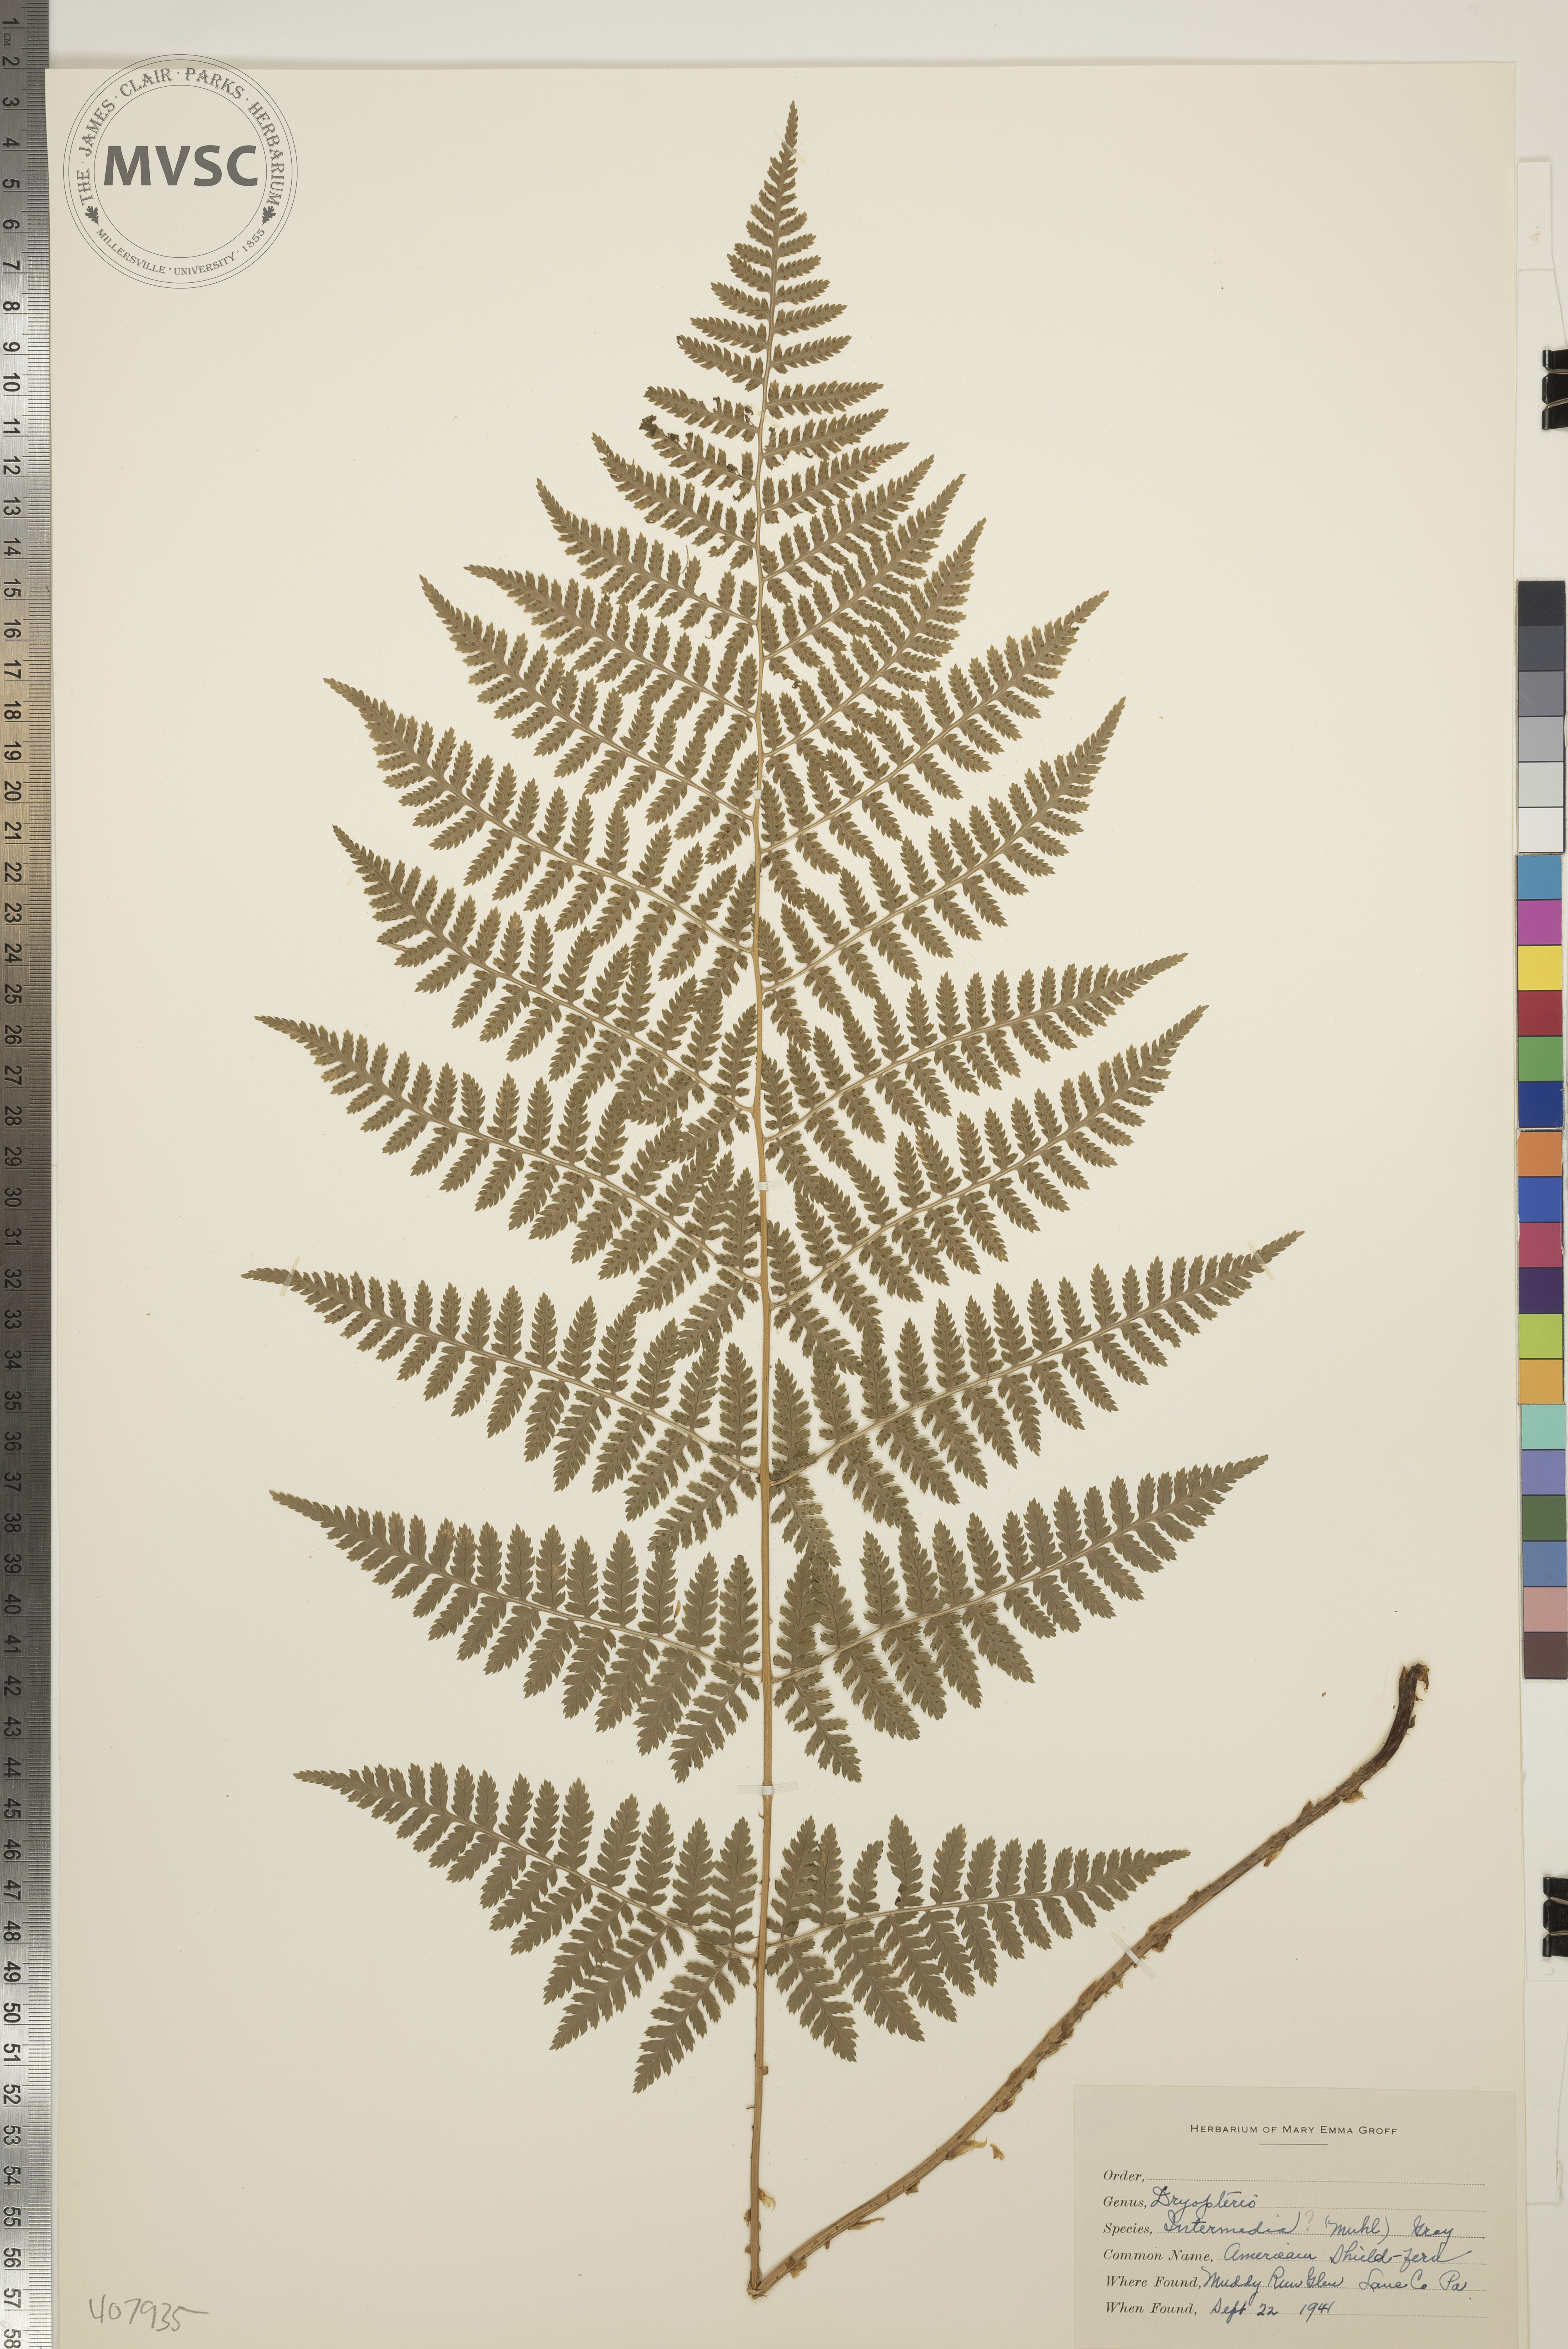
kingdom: Plantae
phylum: Tracheophyta
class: Polypodiopsida
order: Polypodiales
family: Dryopteridaceae
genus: Dryopteris
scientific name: Dryopteris intermedia
